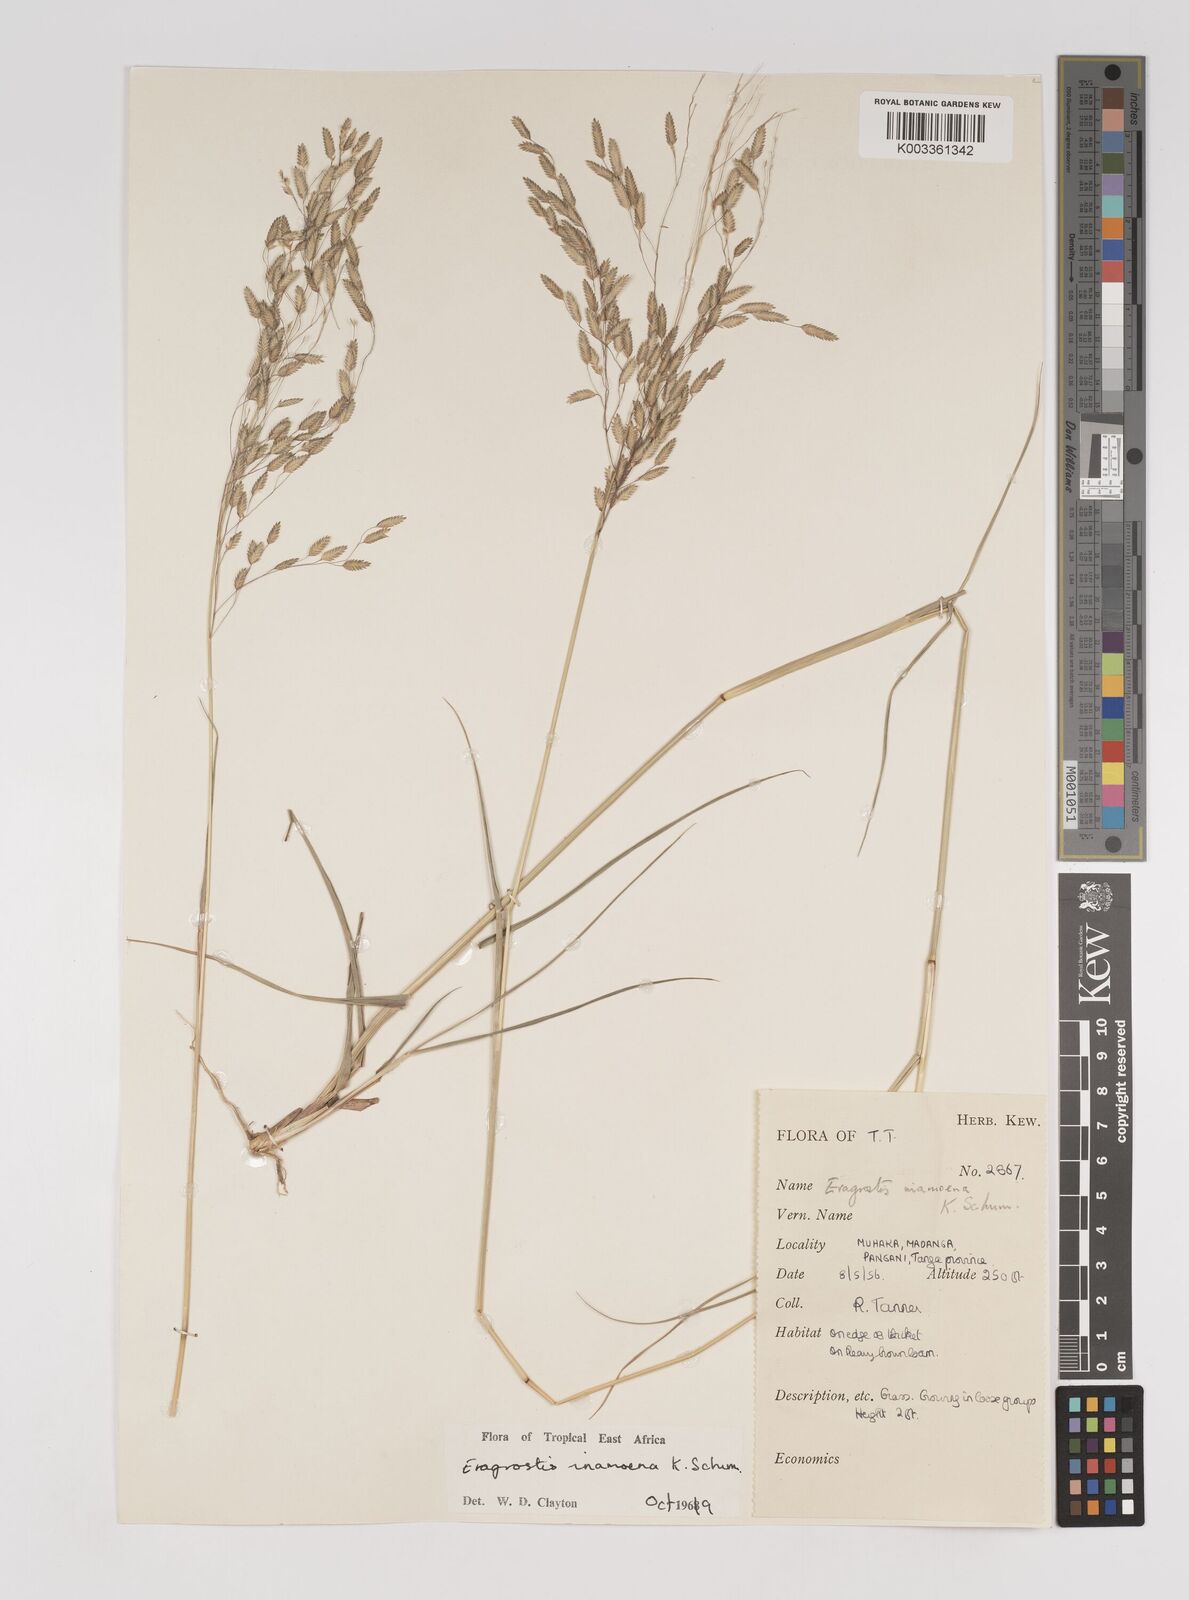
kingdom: Plantae
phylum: Tracheophyta
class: Liliopsida
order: Poales
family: Poaceae
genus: Eragrostis
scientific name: Eragrostis inamoena
